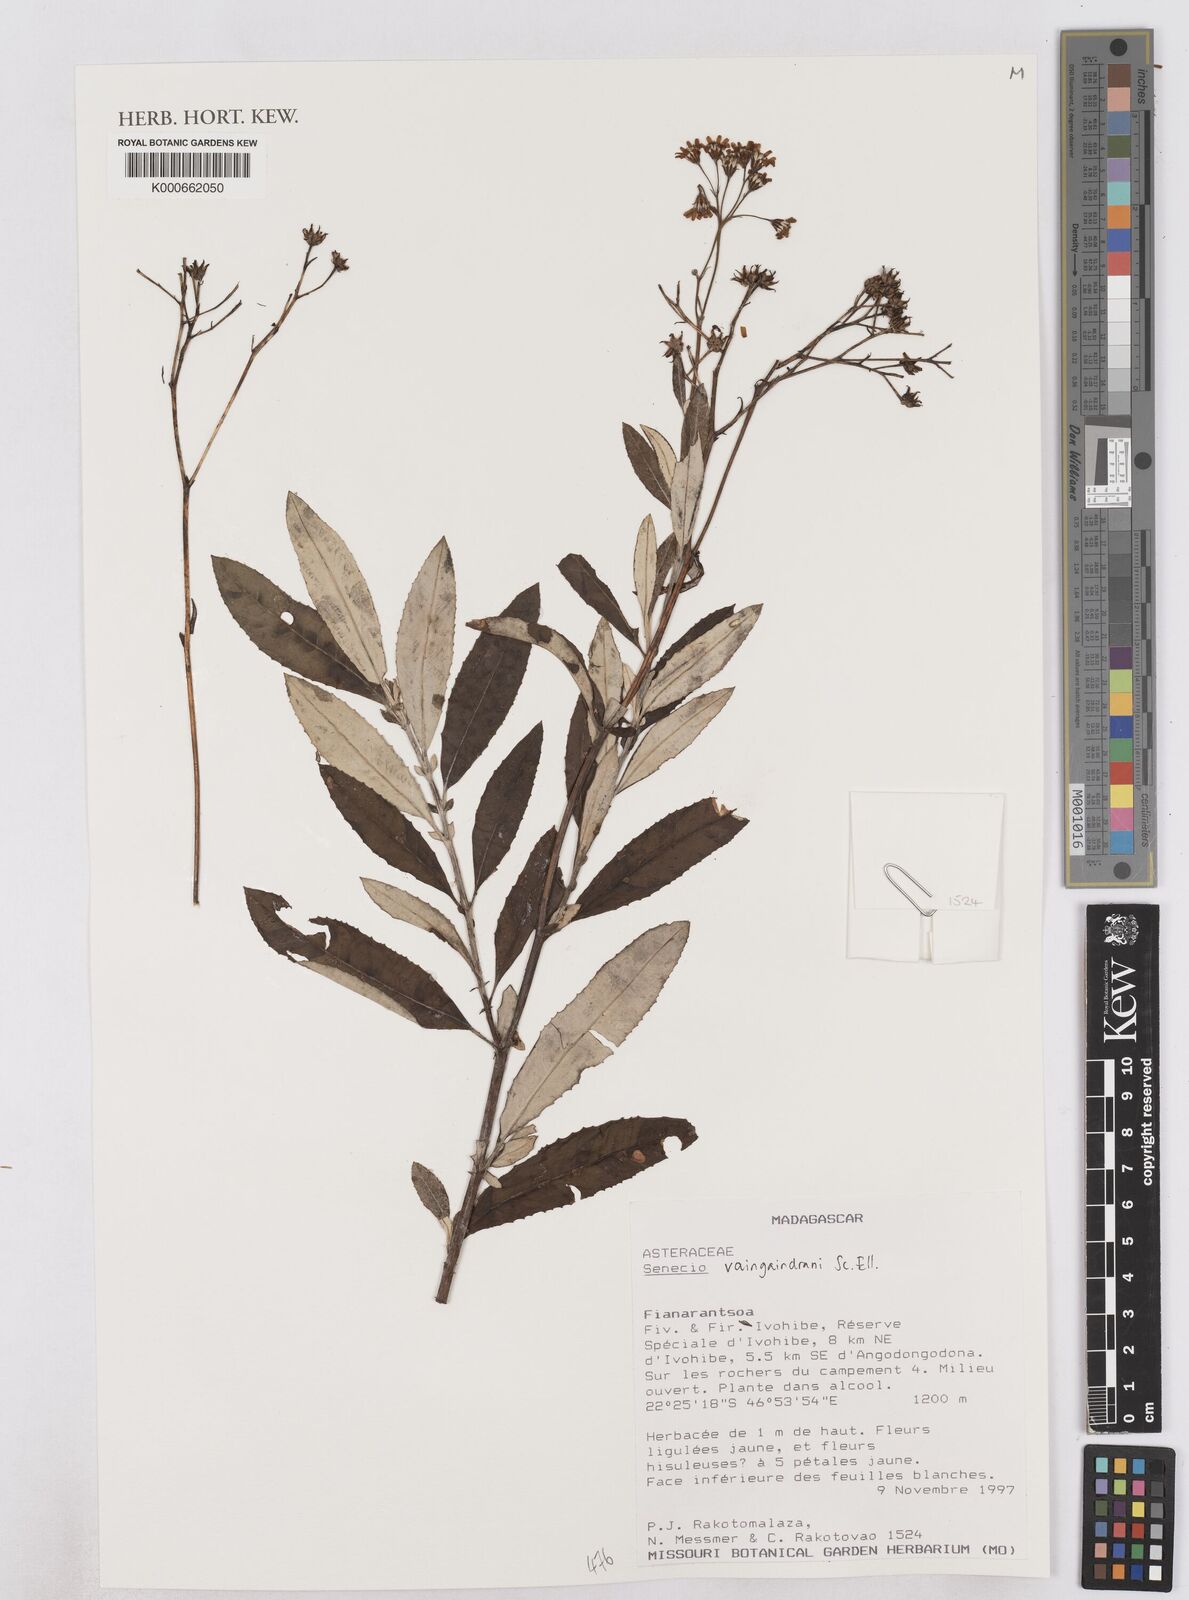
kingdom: Plantae
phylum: Tracheophyta
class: Magnoliopsida
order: Asterales
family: Asteraceae
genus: Senecio
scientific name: Senecio vaingaindrani
